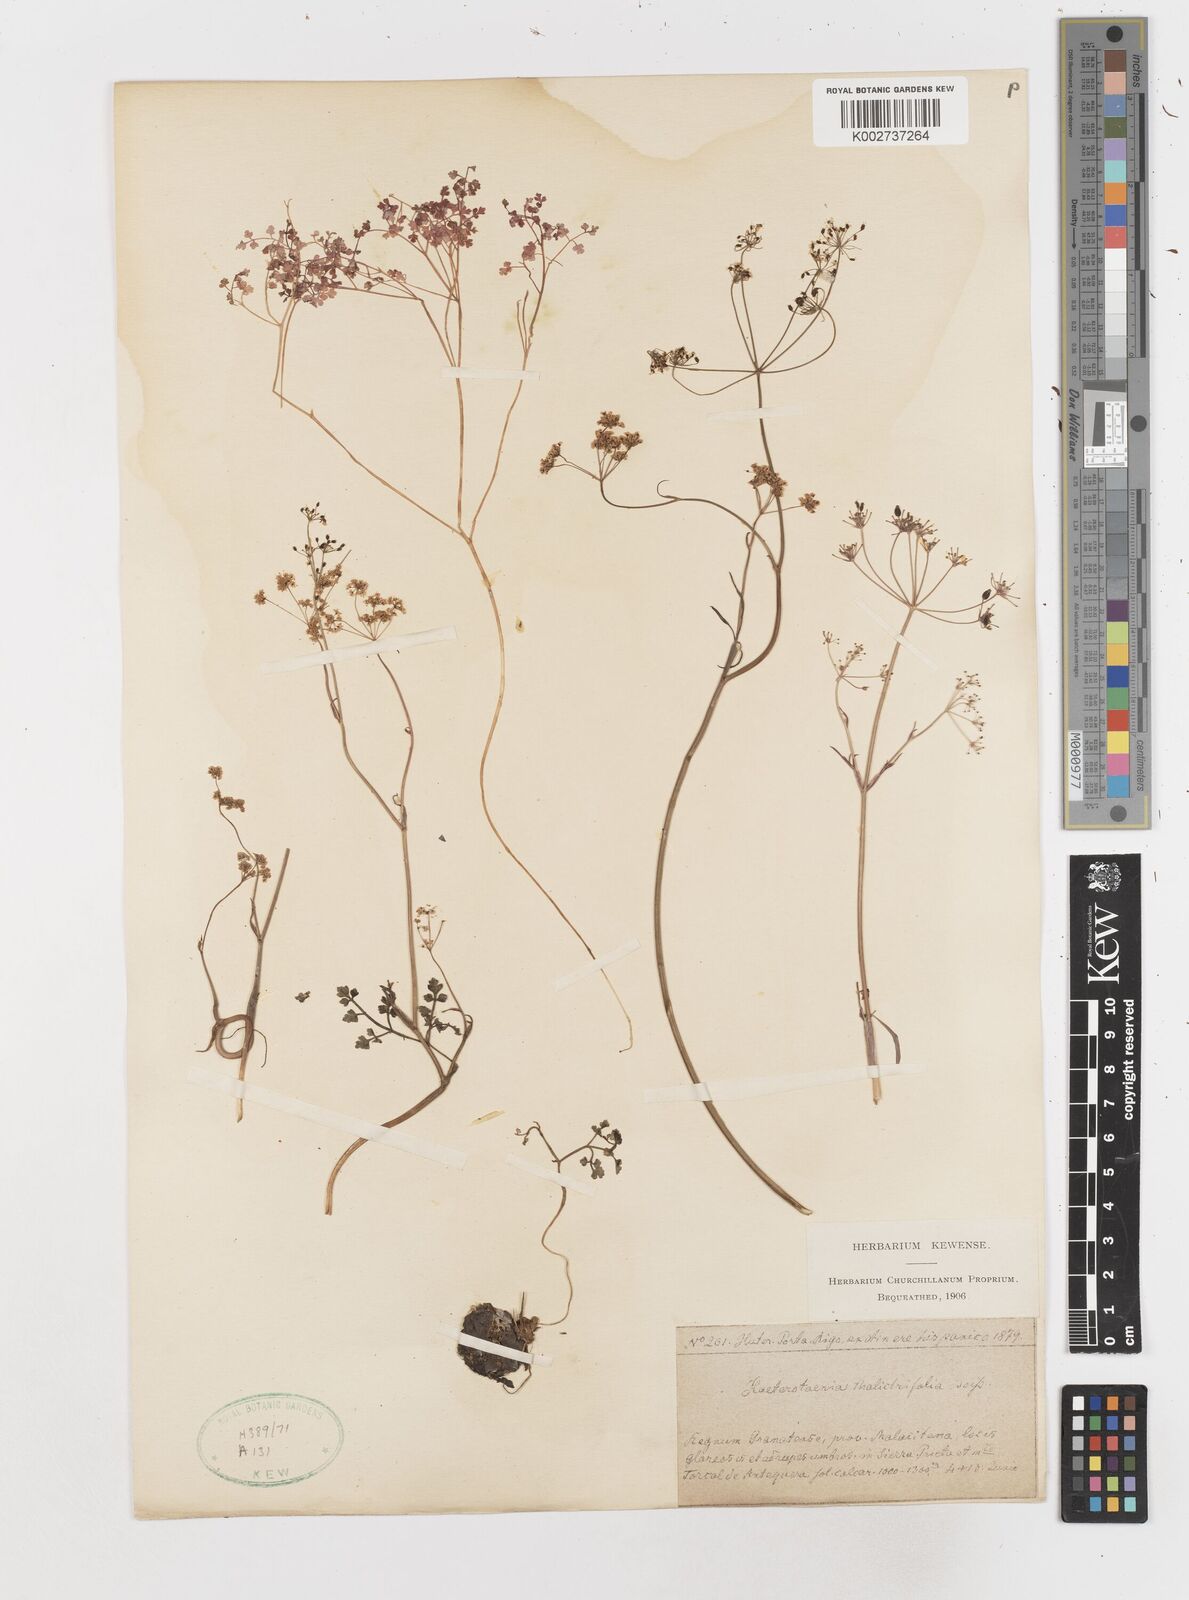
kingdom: Plantae
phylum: Tracheophyta
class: Magnoliopsida
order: Apiales
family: Apiaceae
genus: Conopodium
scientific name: Conopodium thalictrifolium
